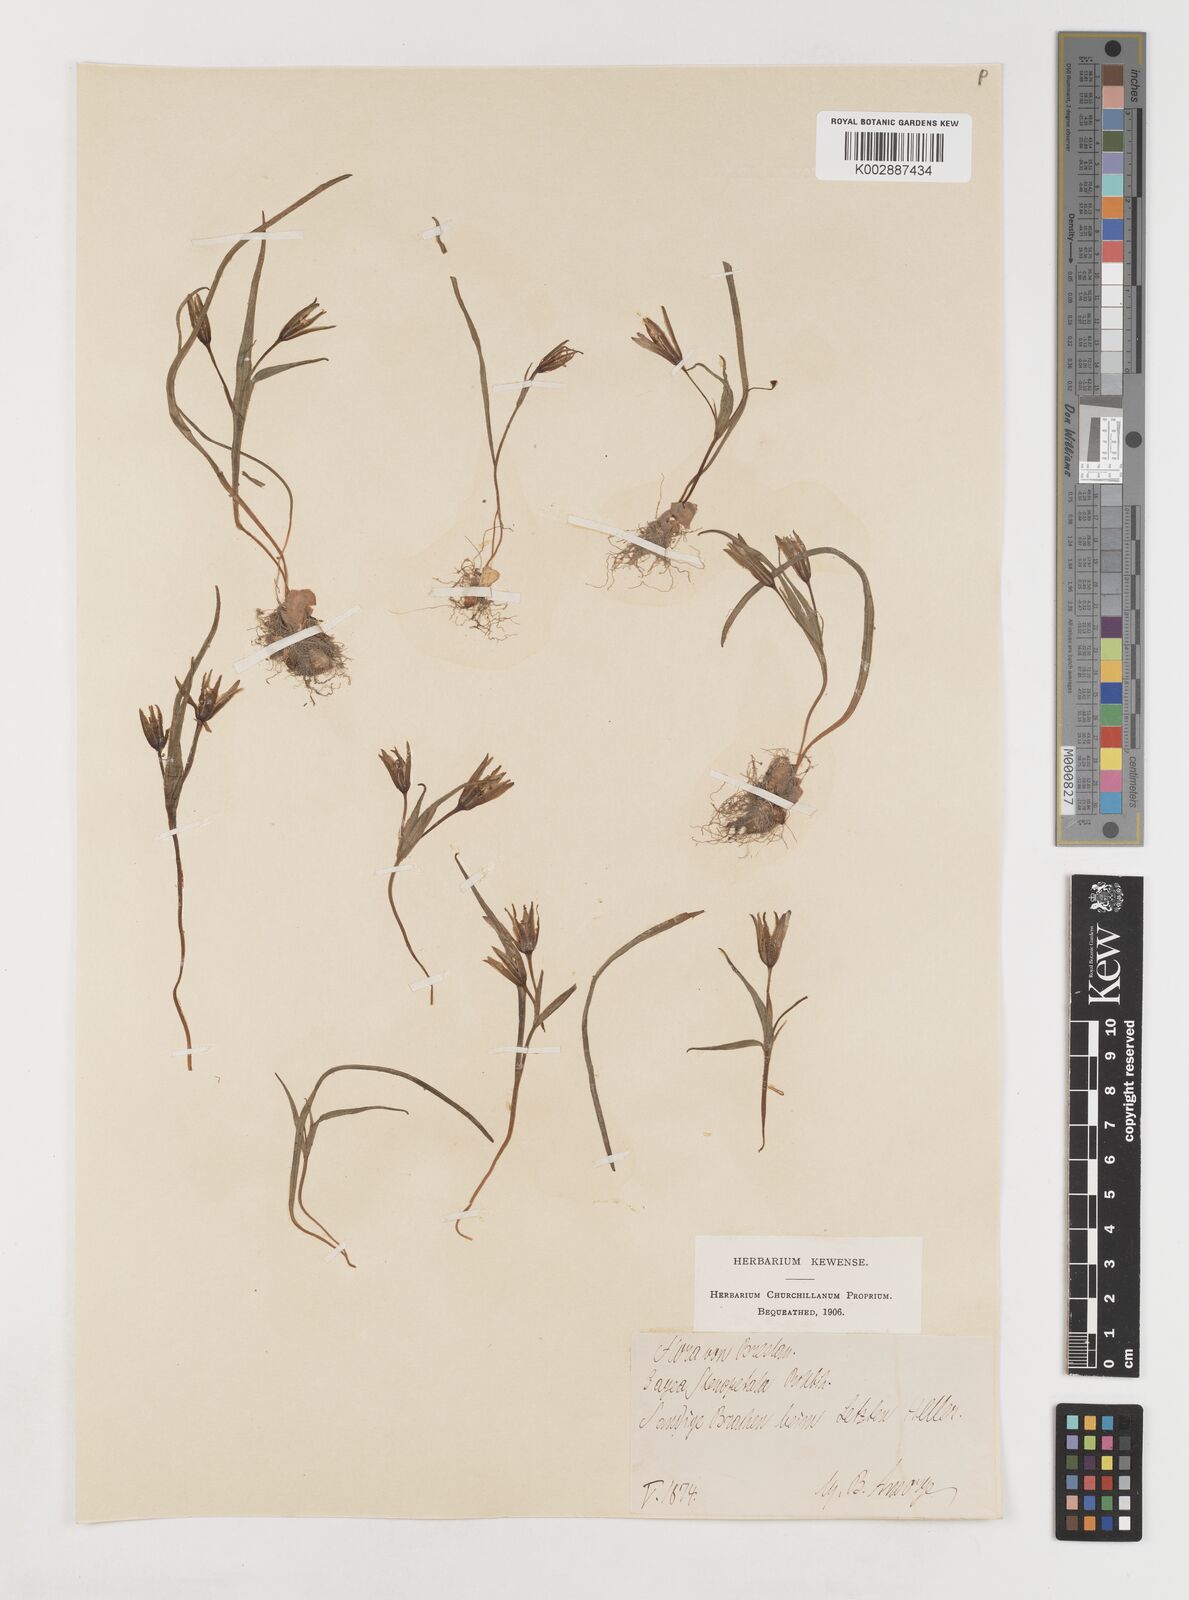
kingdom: Plantae
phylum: Tracheophyta
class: Liliopsida
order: Liliales
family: Liliaceae
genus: Gagea
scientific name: Gagea pratensis
